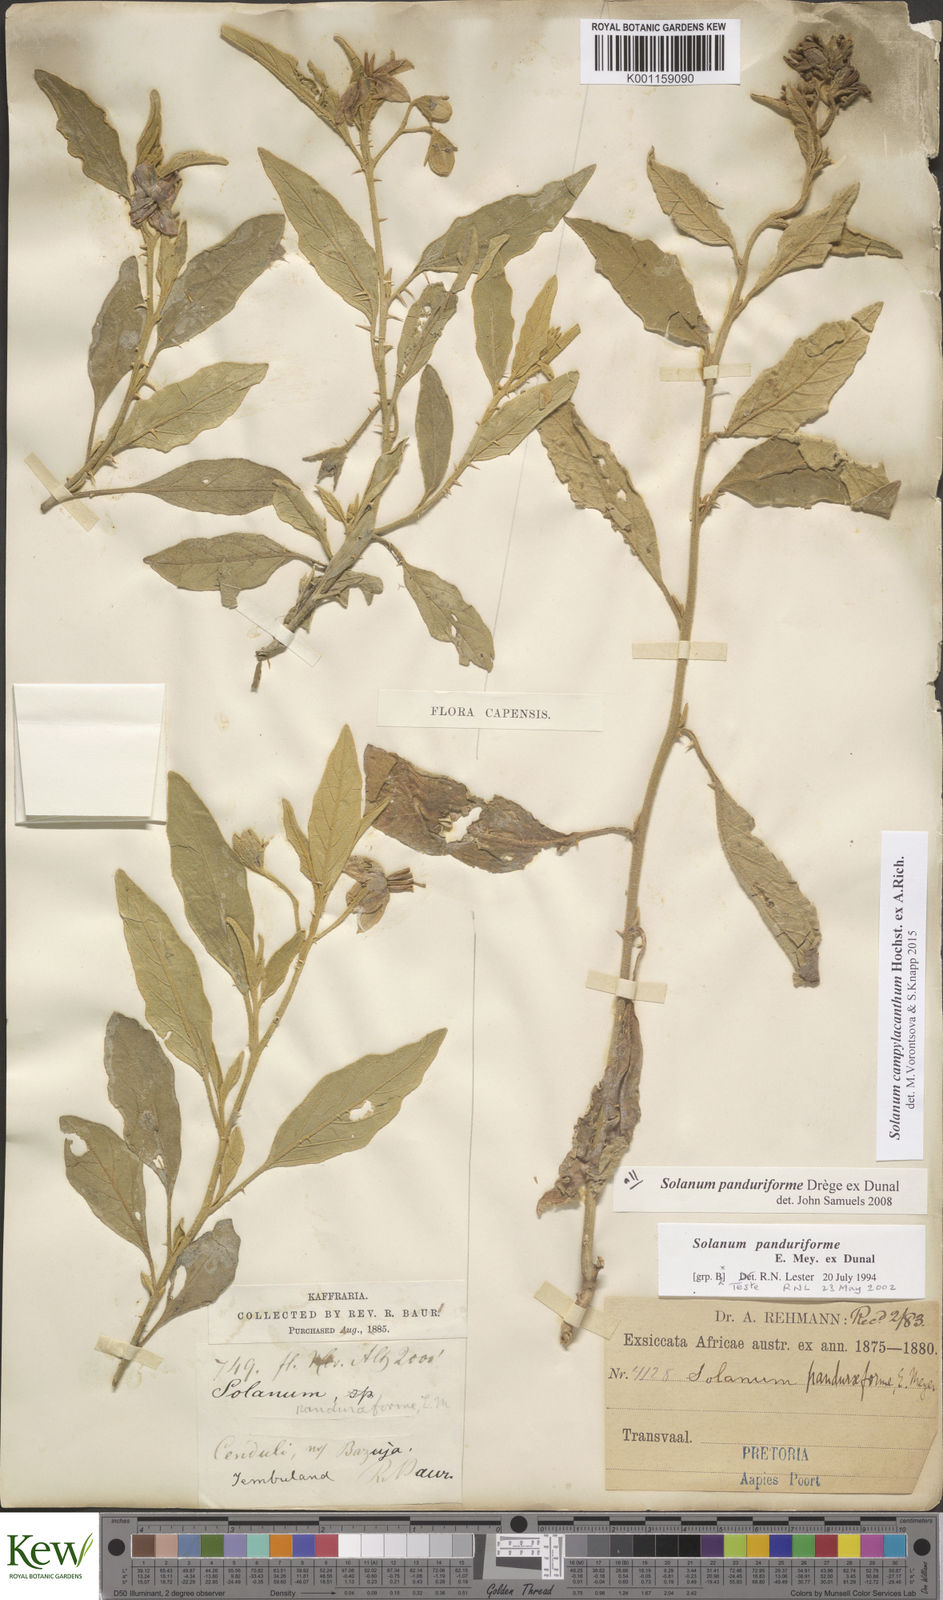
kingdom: Plantae
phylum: Tracheophyta
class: Magnoliopsida
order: Solanales
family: Solanaceae
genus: Solanum
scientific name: Solanum campylacanthum
